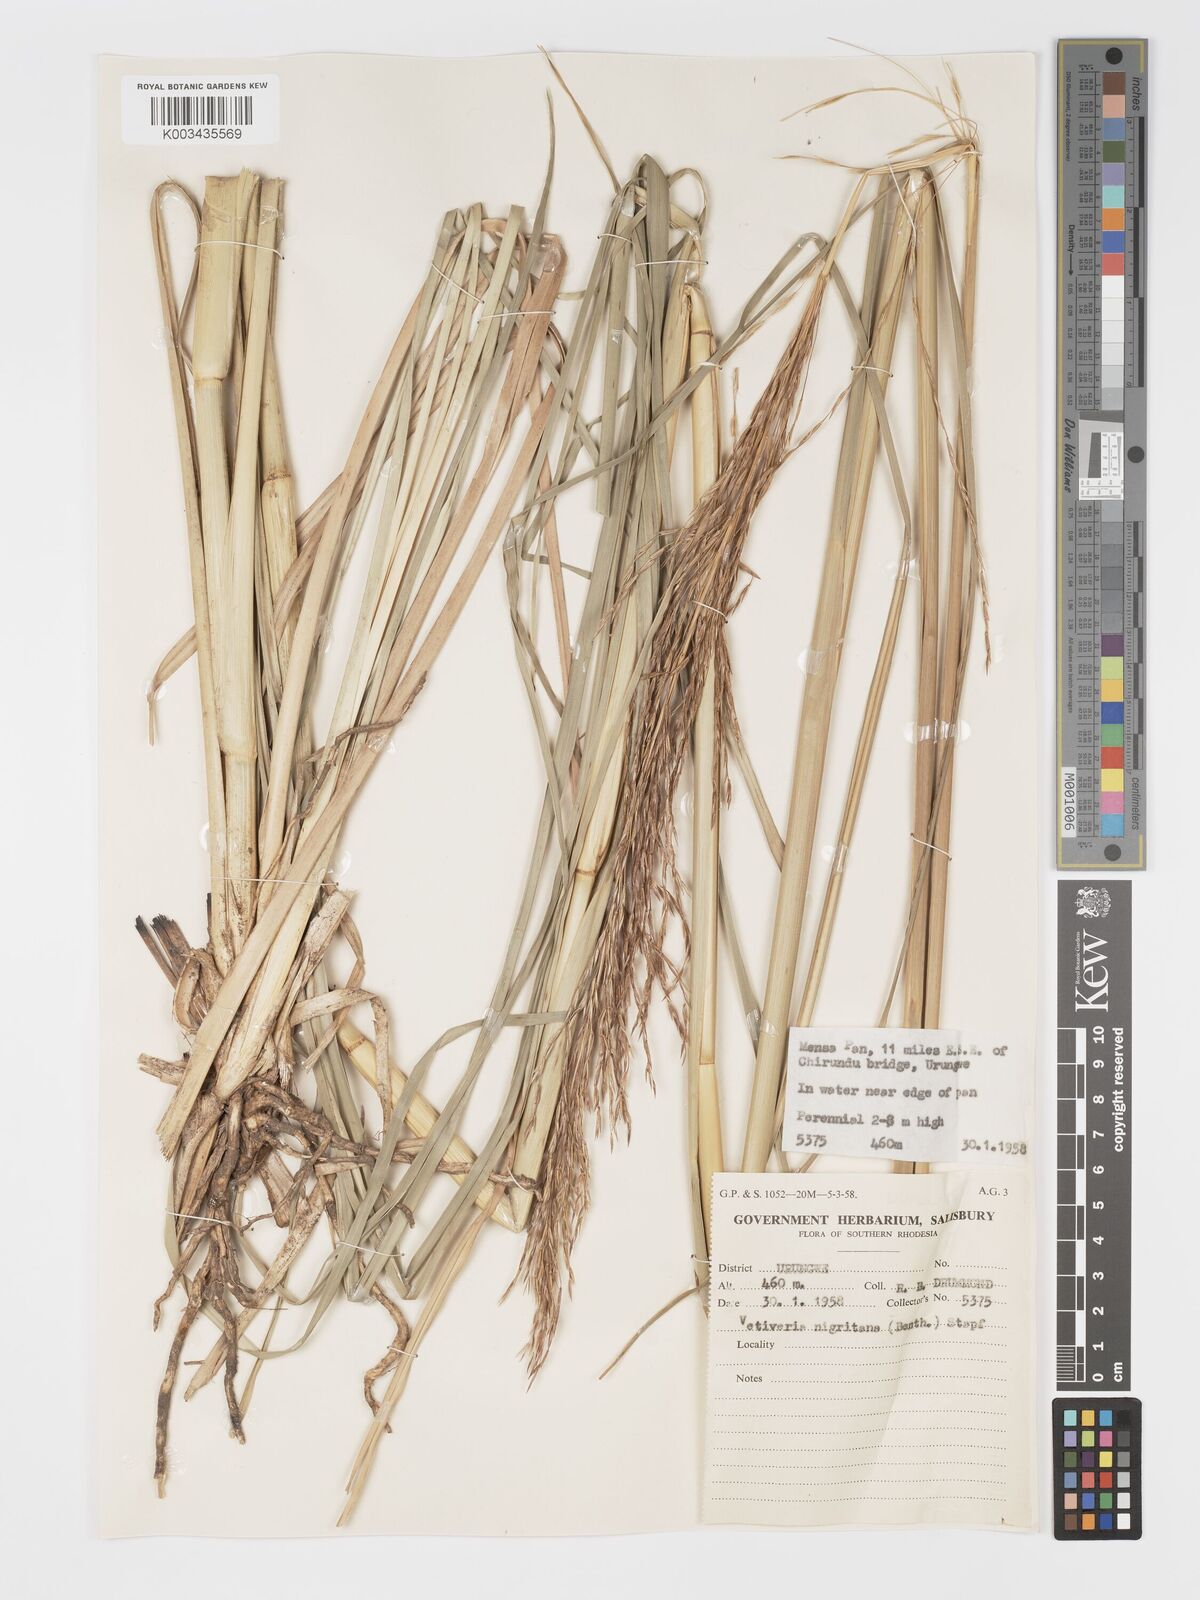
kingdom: Plantae
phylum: Tracheophyta
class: Liliopsida
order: Poales
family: Poaceae
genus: Chrysopogon
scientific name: Chrysopogon nigritanus
